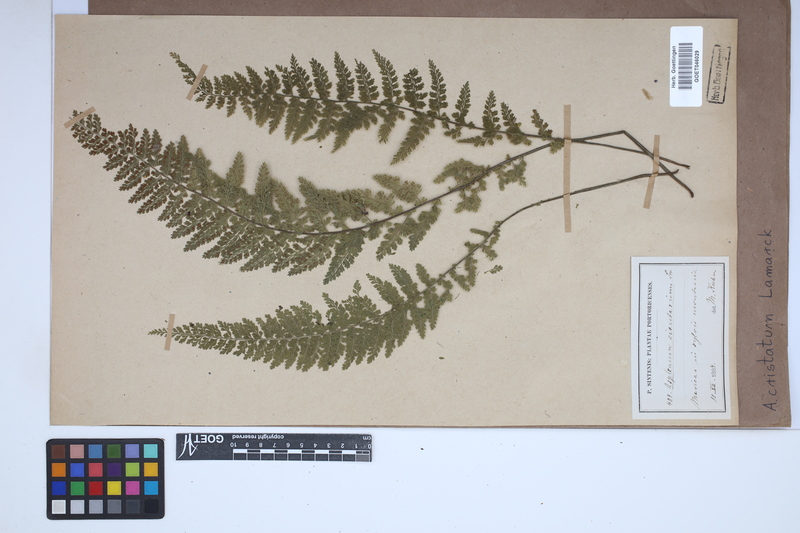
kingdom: Plantae
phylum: Tracheophyta
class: Polypodiopsida
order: Polypodiales
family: Aspleniaceae
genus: Asplenium
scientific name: Asplenium cristatum
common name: Parsley spleenwort
